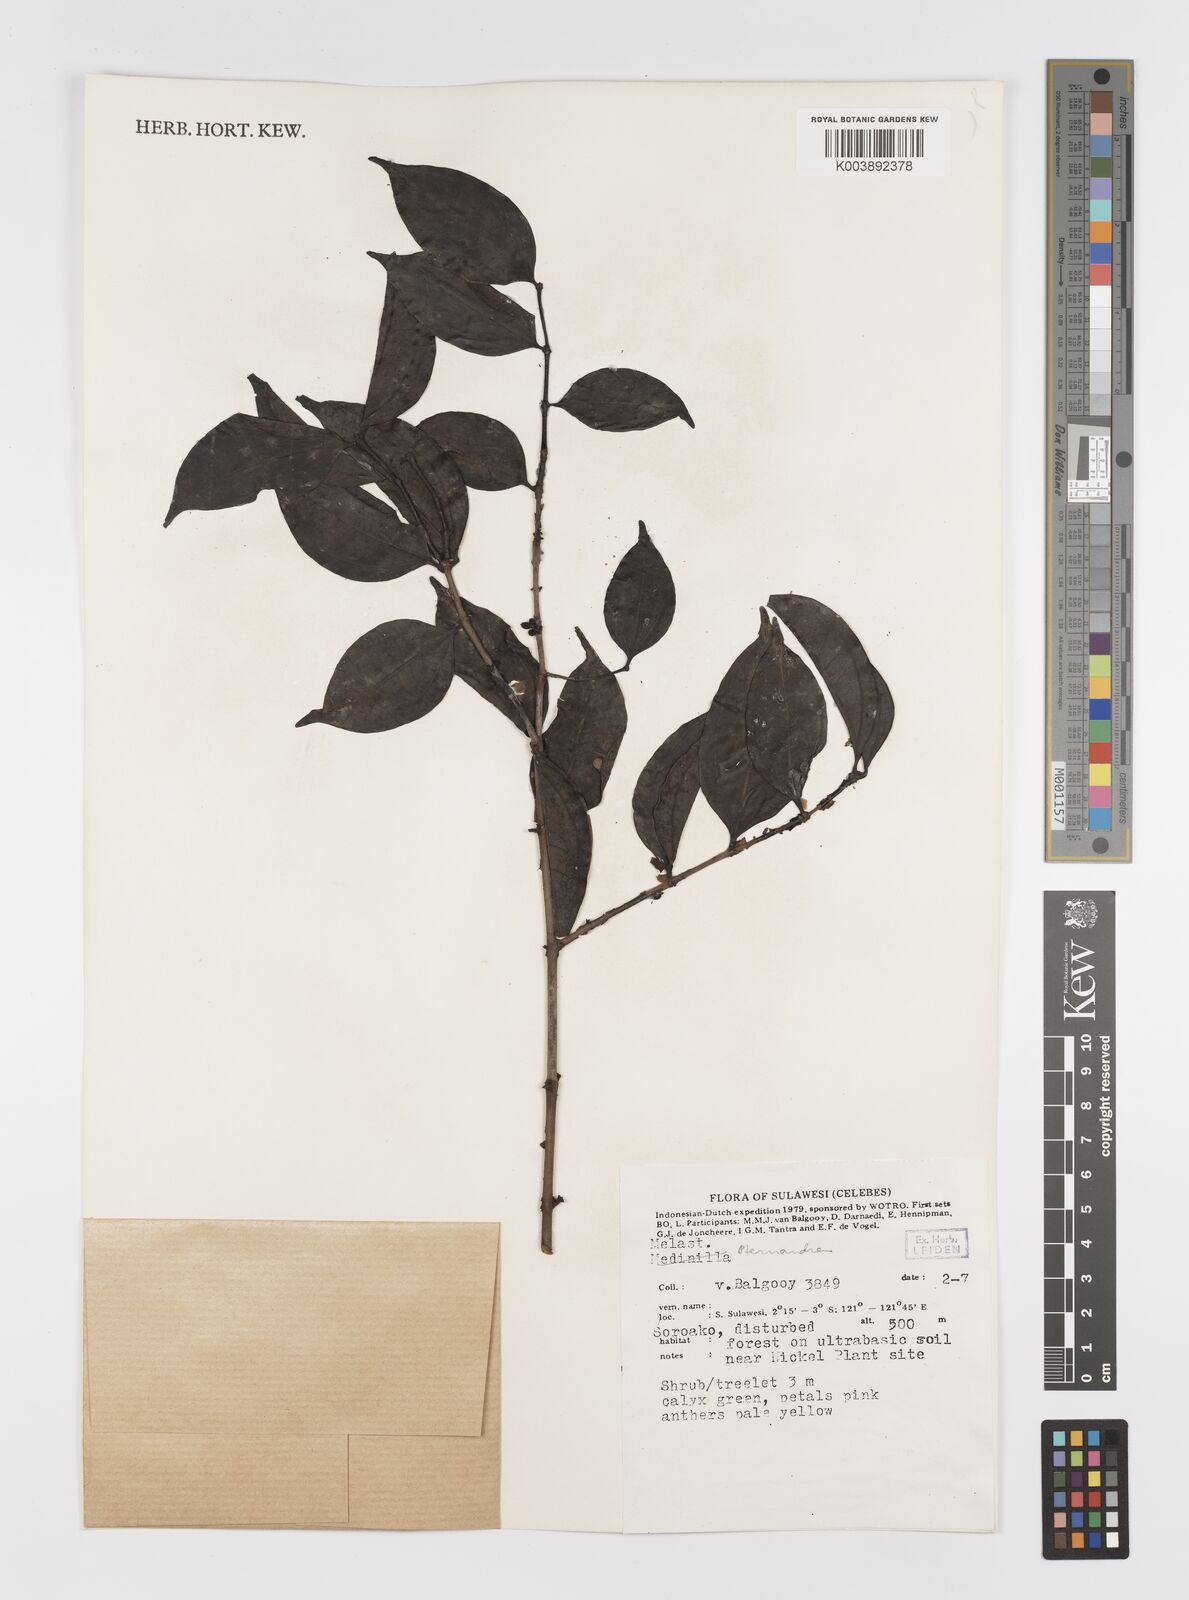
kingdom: Plantae
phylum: Tracheophyta
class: Magnoliopsida
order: Myrtales
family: Melastomataceae
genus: Medinilla
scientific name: Medinilla
